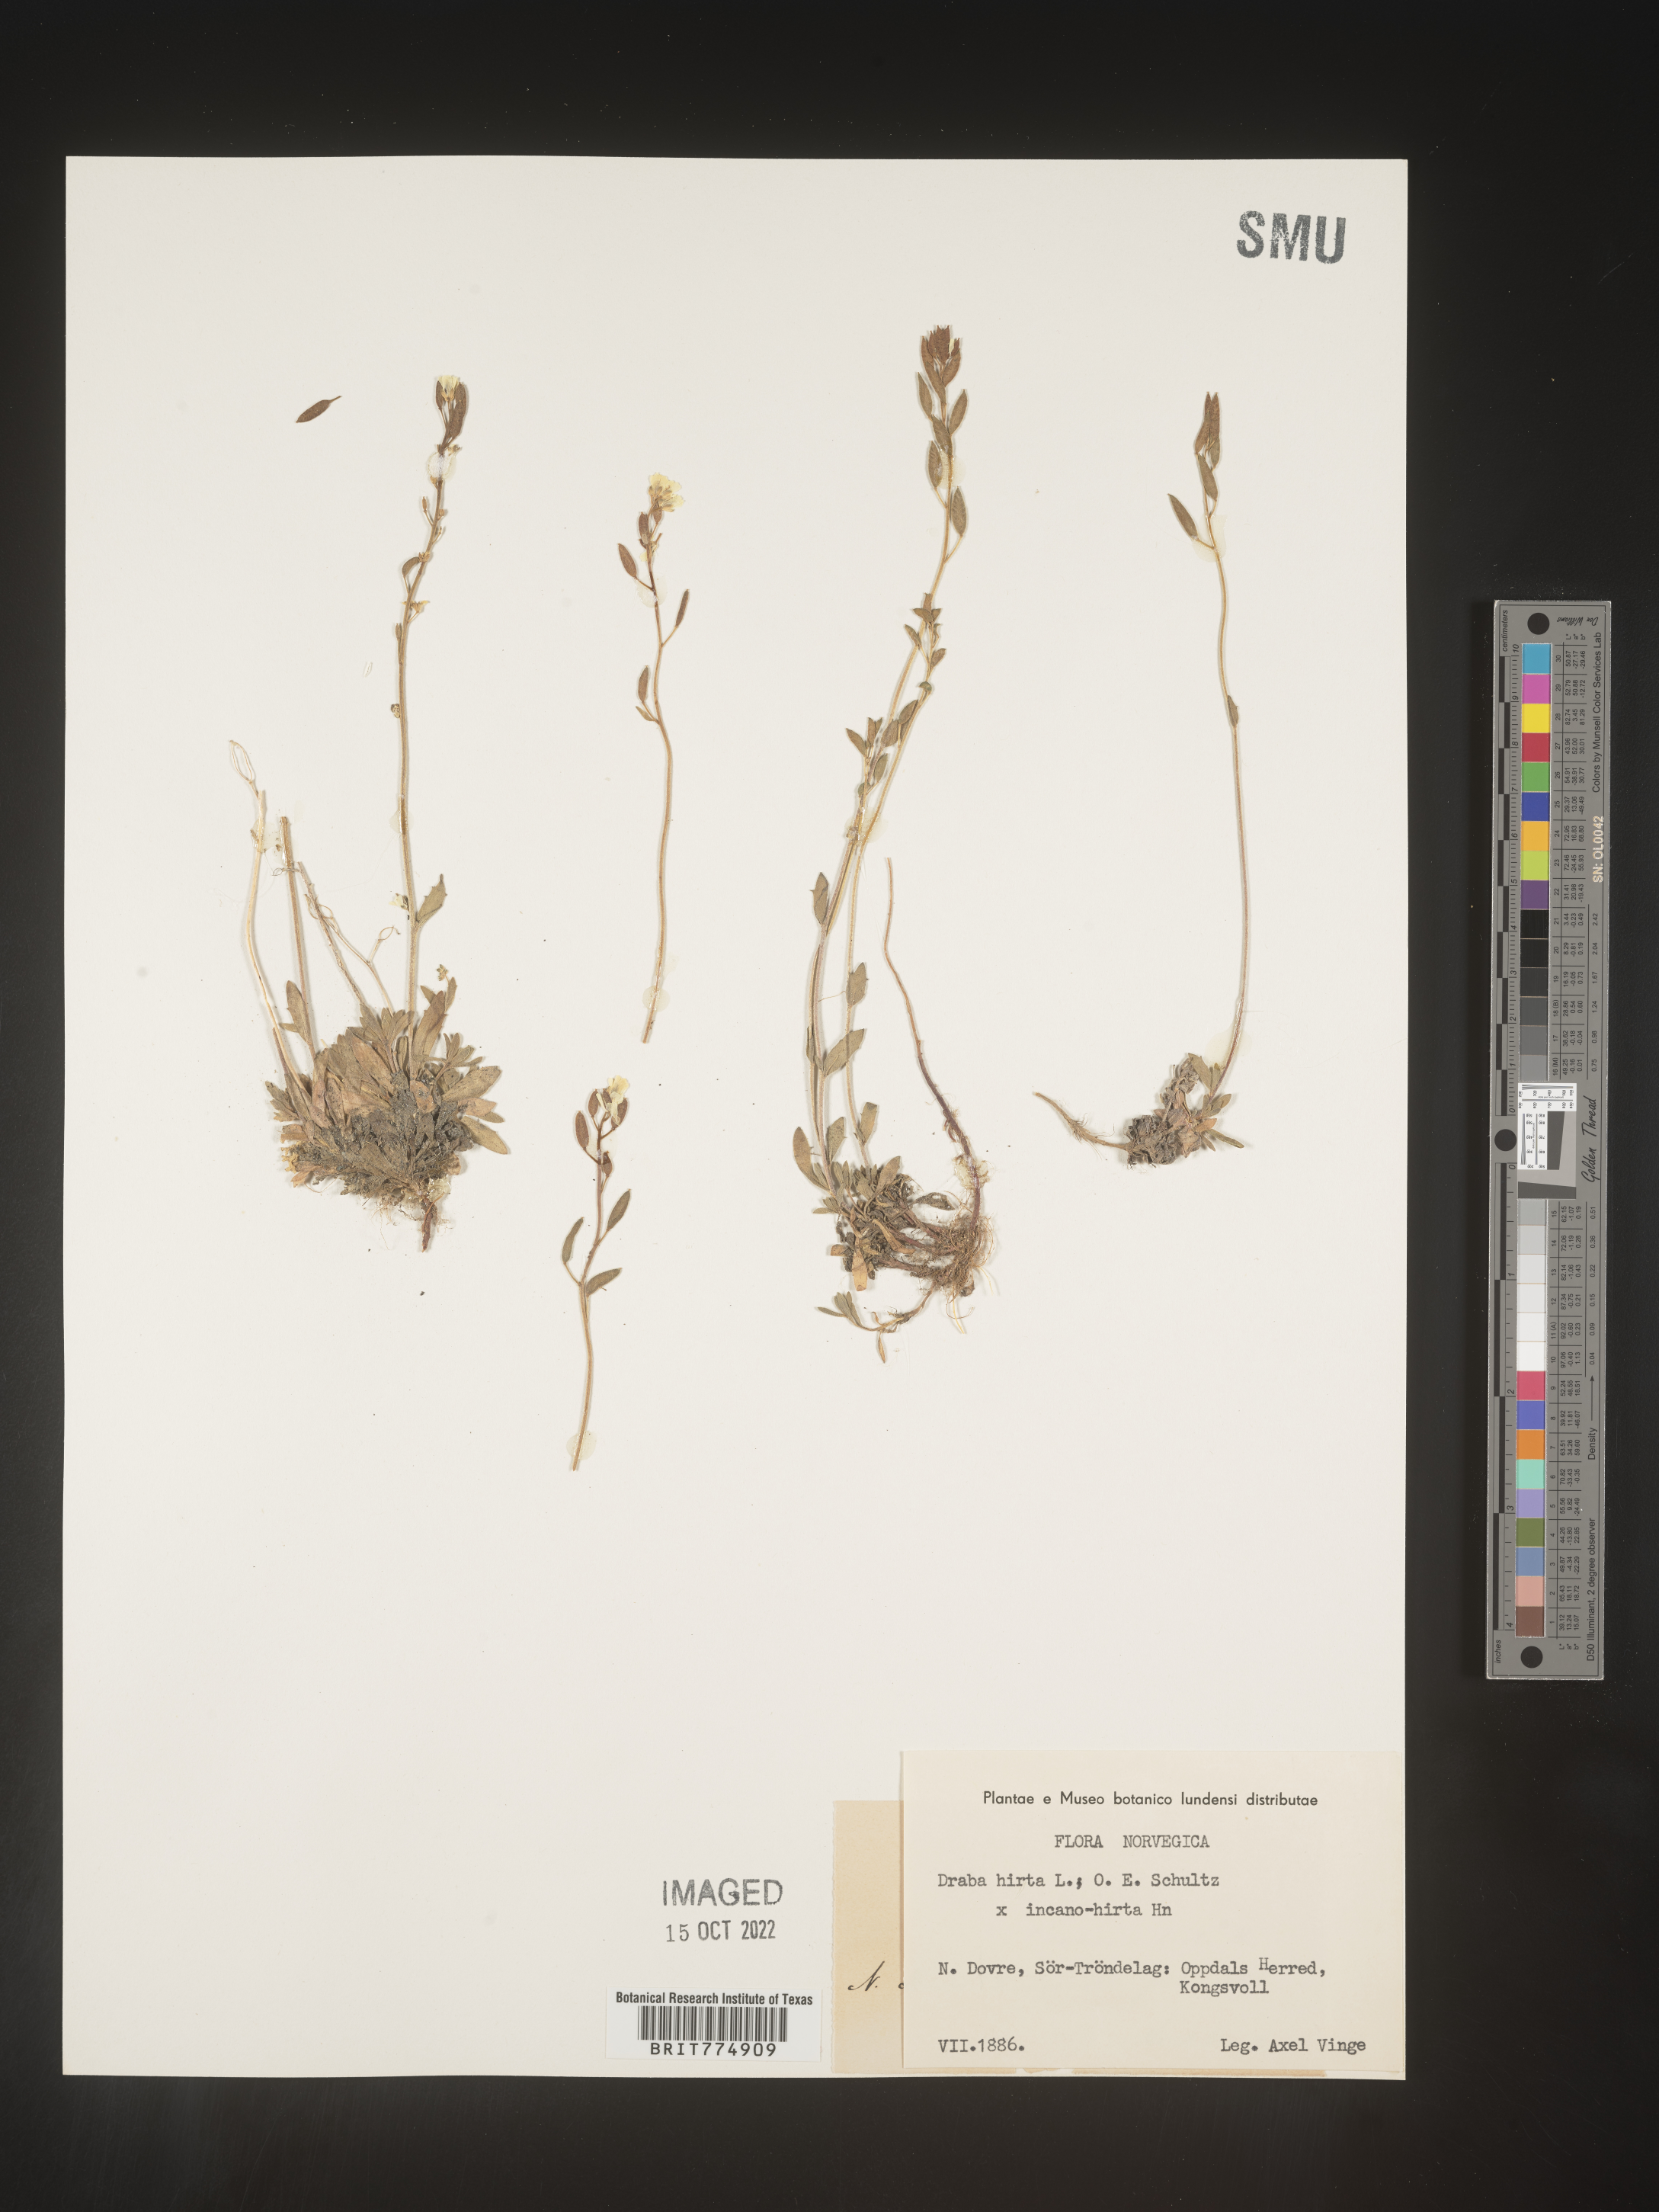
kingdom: Plantae
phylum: Tracheophyta
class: Magnoliopsida
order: Brassicales
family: Brassicaceae
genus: Draba
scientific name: Draba
